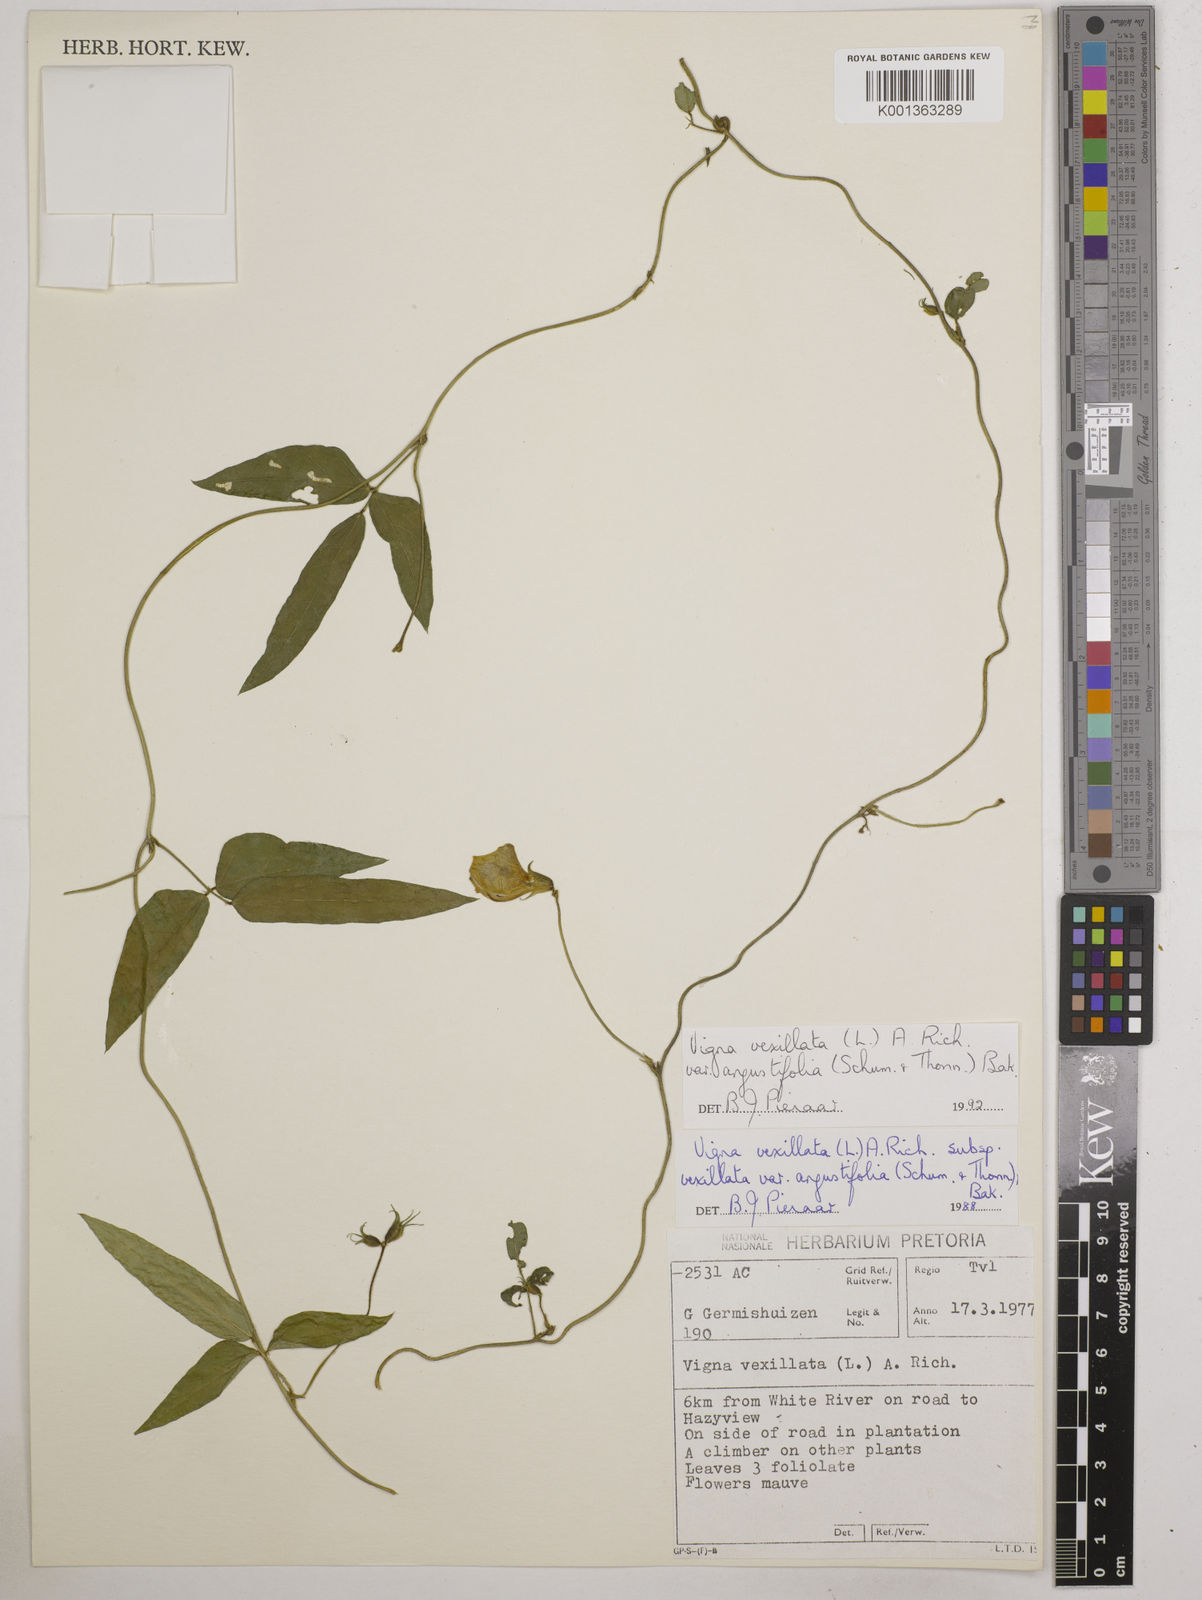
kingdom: Plantae
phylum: Tracheophyta
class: Magnoliopsida
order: Fabales
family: Fabaceae
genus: Vigna
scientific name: Vigna vexillata
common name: Zombi pea
